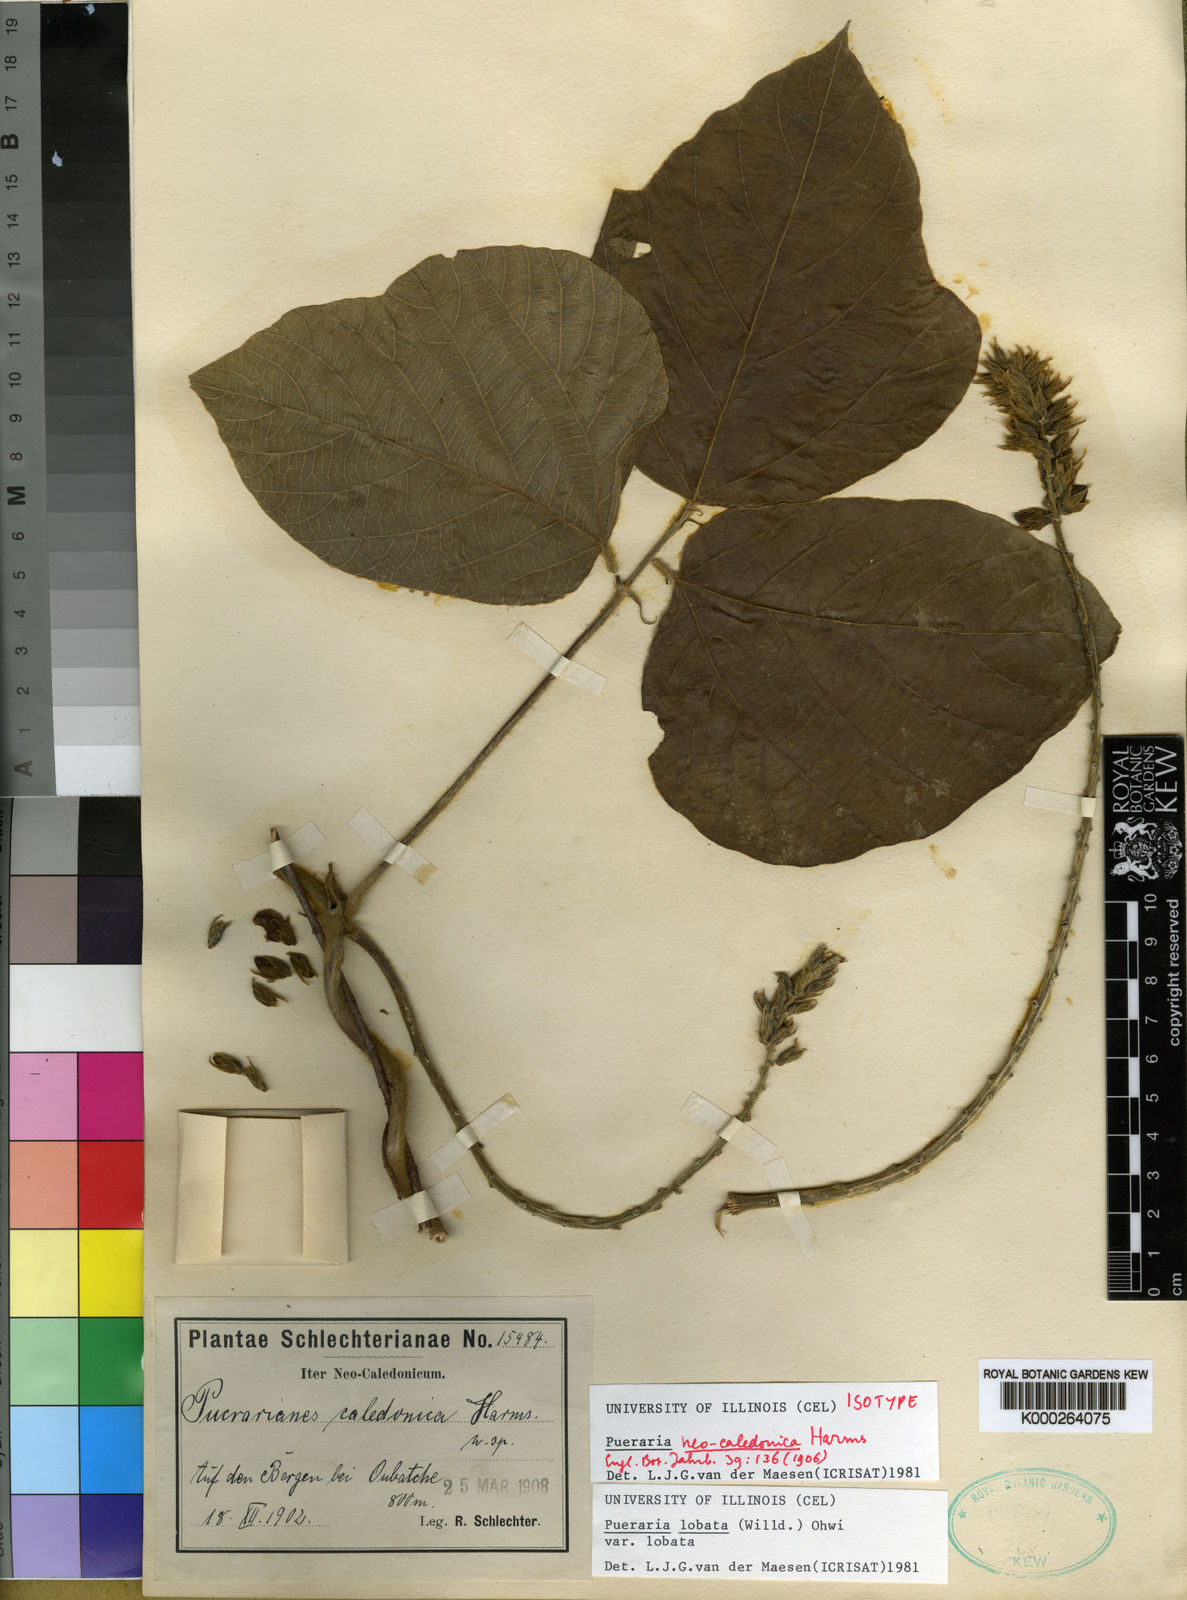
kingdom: Plantae
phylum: Tracheophyta
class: Magnoliopsida
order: Fabales
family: Fabaceae
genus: Pueraria
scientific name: Pueraria montana
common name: Kudzu
